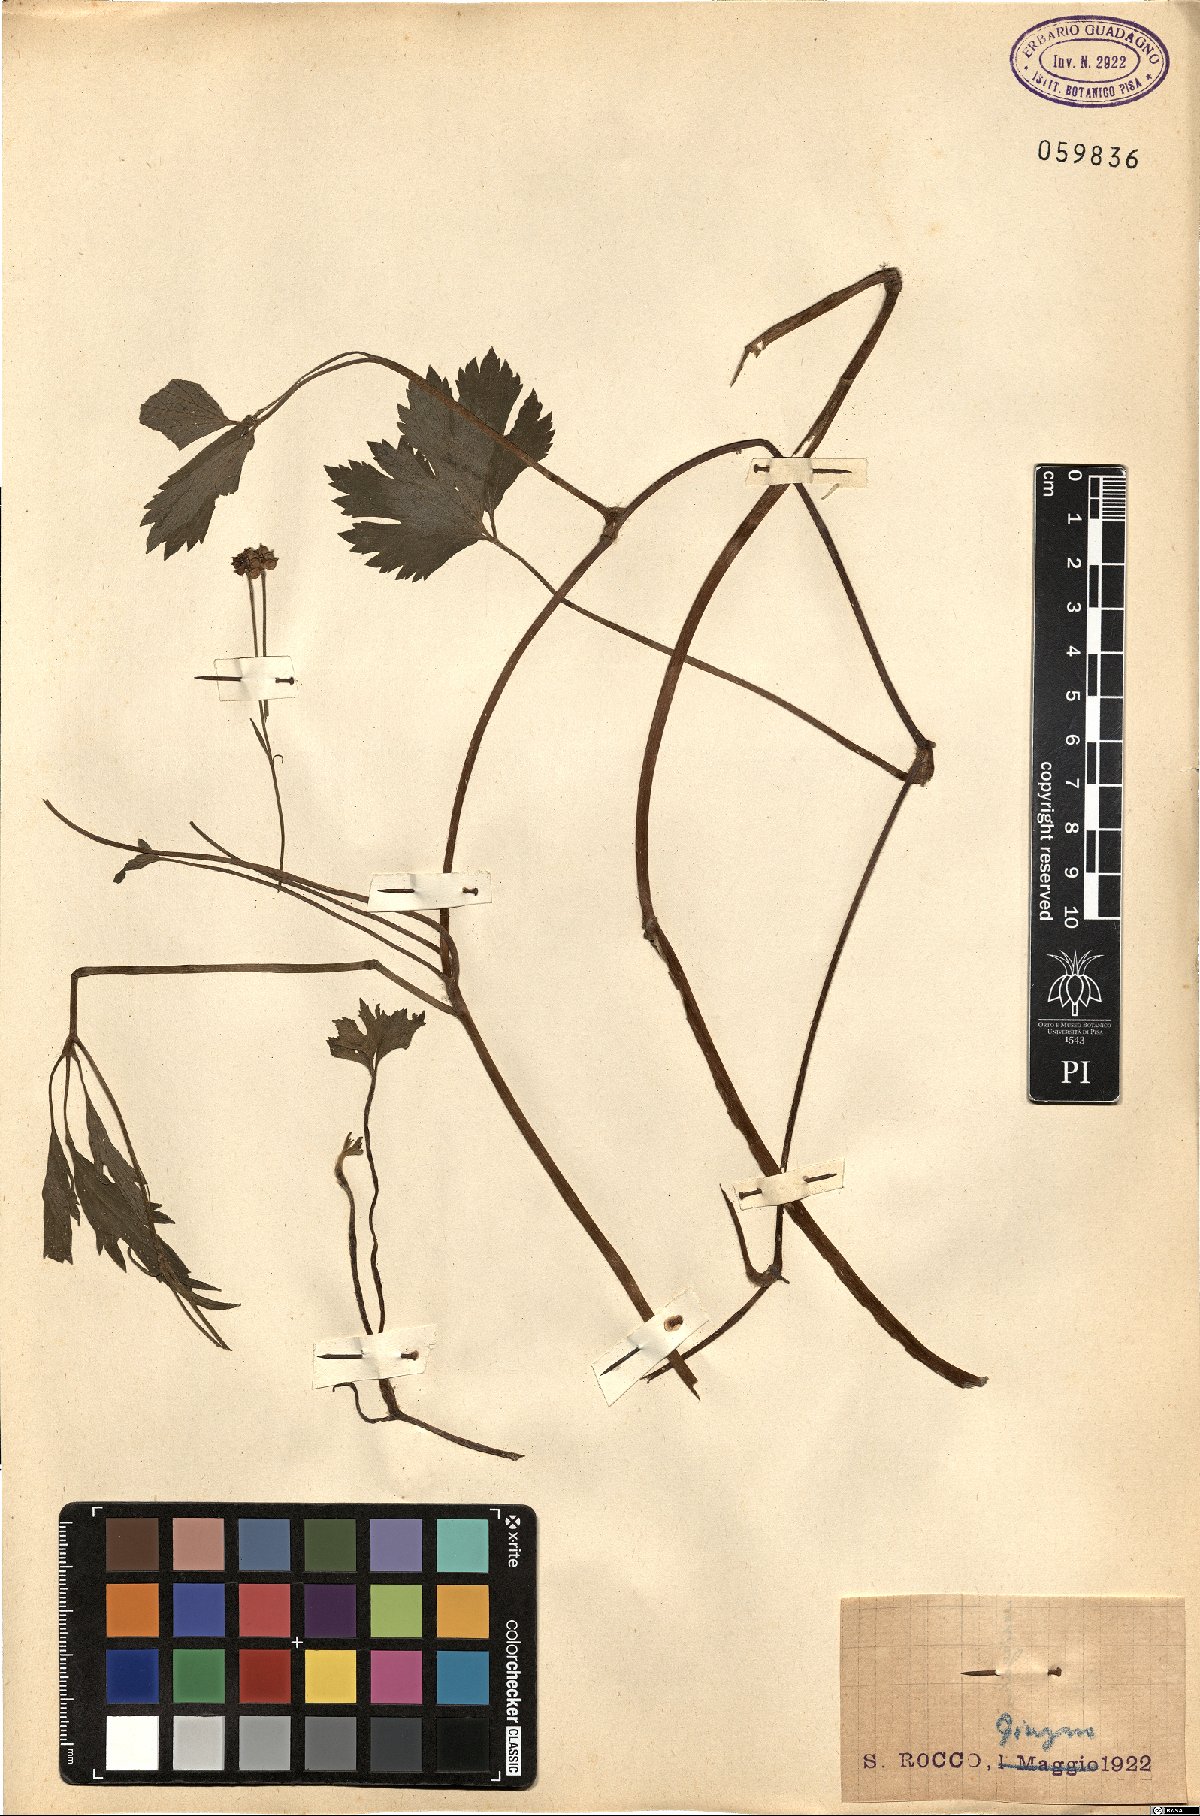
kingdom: Plantae
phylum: Tracheophyta
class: Magnoliopsida
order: Ranunculales
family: Ranunculaceae
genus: Ranunculus
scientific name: Ranunculus
